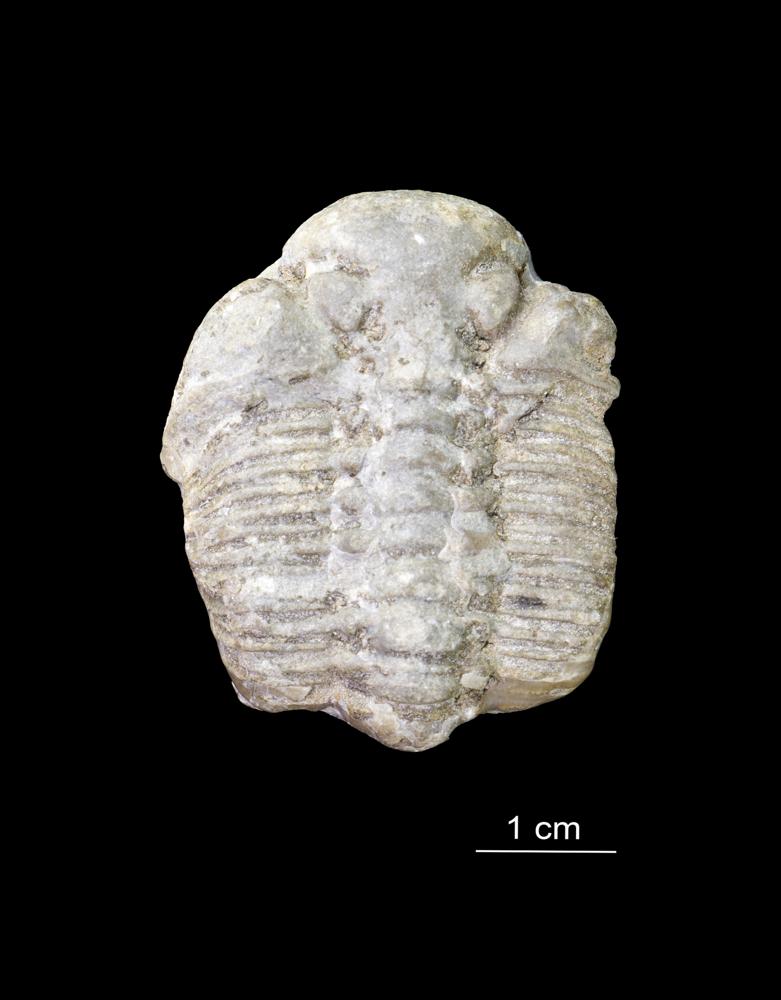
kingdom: Animalia
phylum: Arthropoda
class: Trilobita
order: Phacopida
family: Pterygometopidae
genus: Chasmops
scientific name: Chasmops odini
